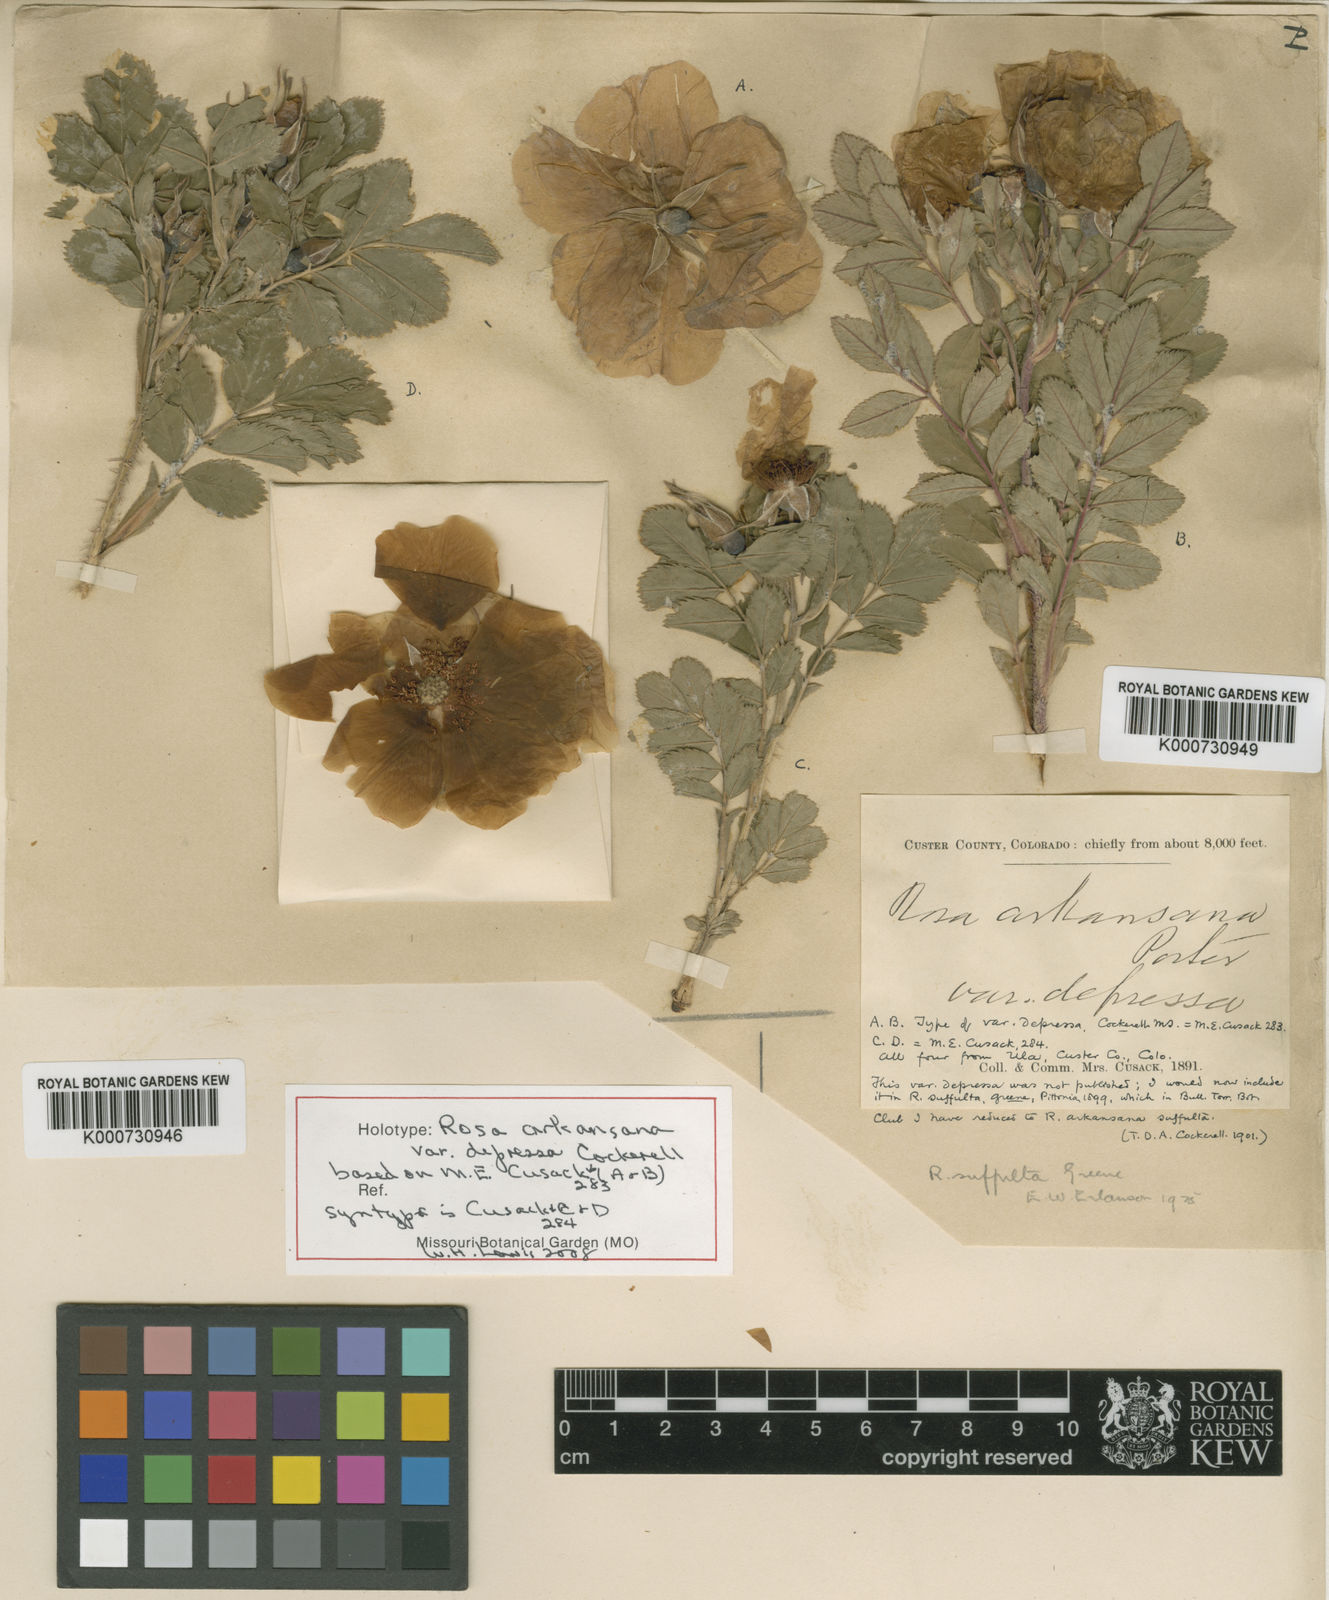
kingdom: Plantae
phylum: Tracheophyta
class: Magnoliopsida
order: Rosales
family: Rosaceae
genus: Rosa
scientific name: Rosa arkansana
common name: Prairie rose
